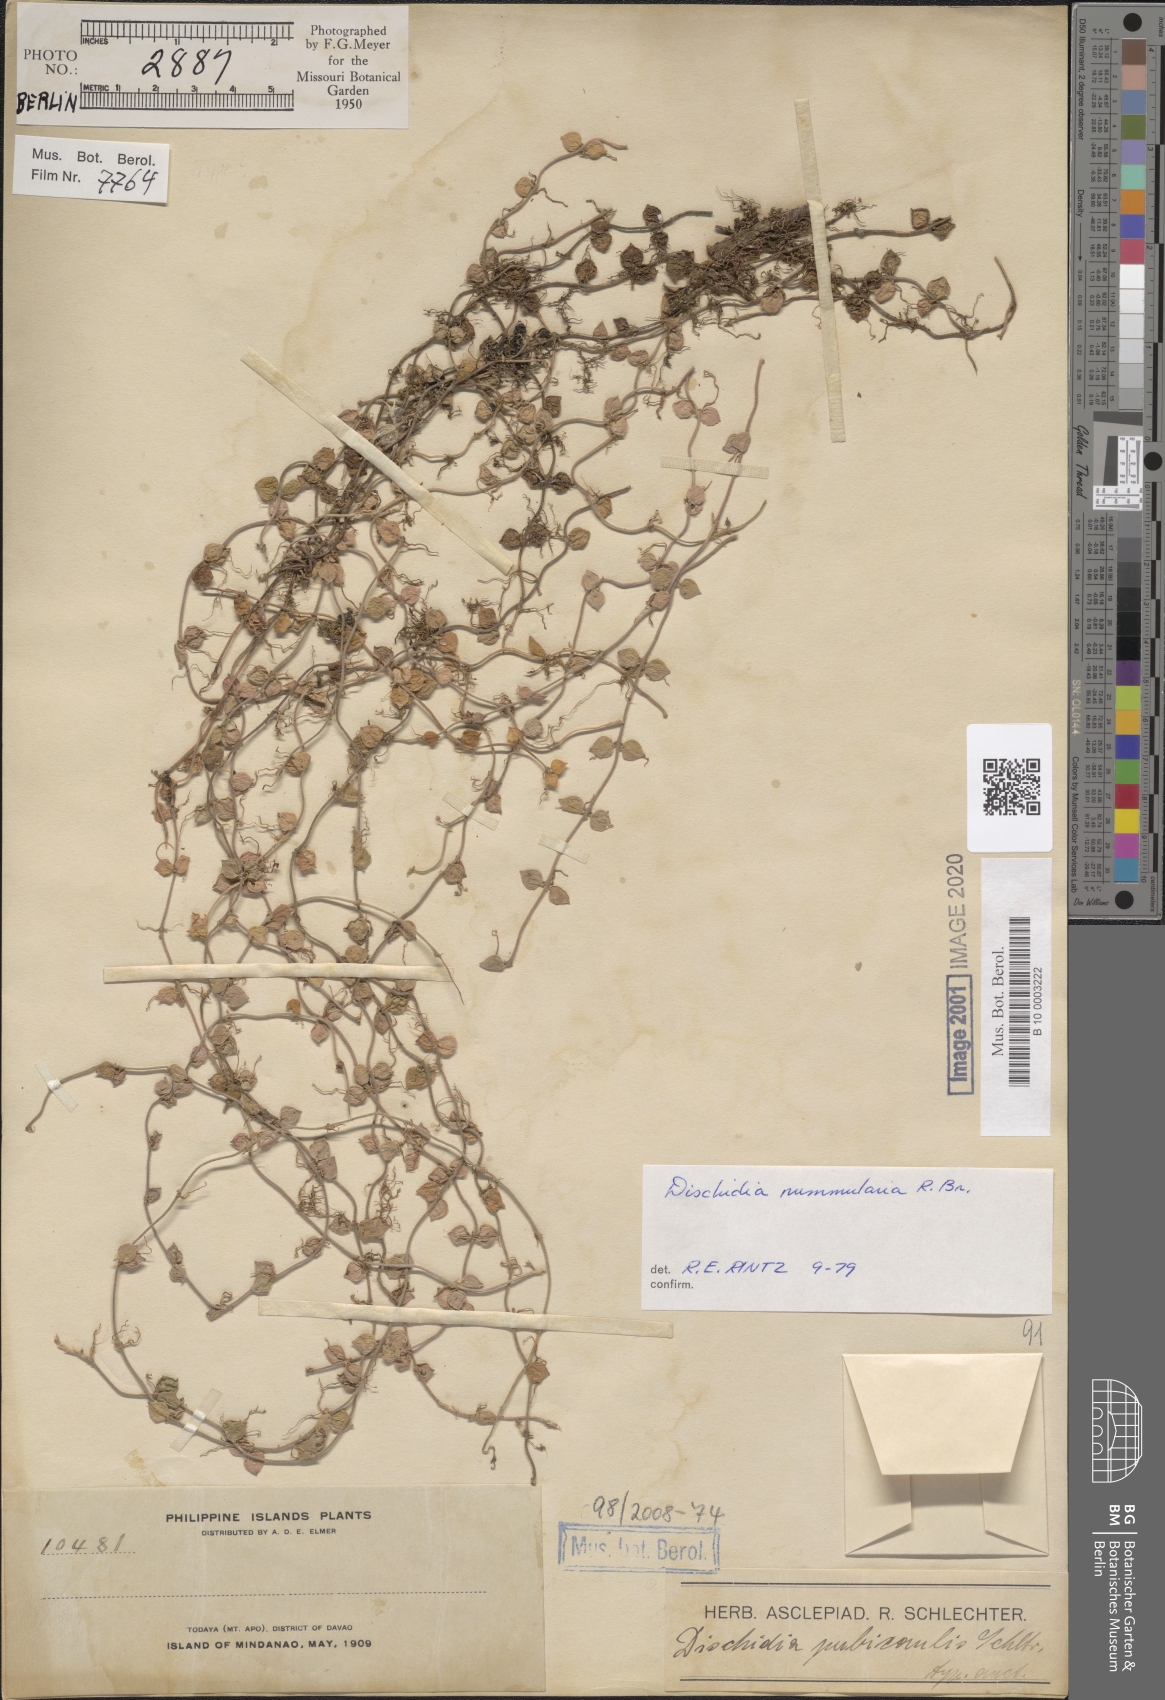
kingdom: Plantae
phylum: Tracheophyta
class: Magnoliopsida
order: Gentianales
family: Apocynaceae
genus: Dischidia
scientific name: Dischidia nummularia
